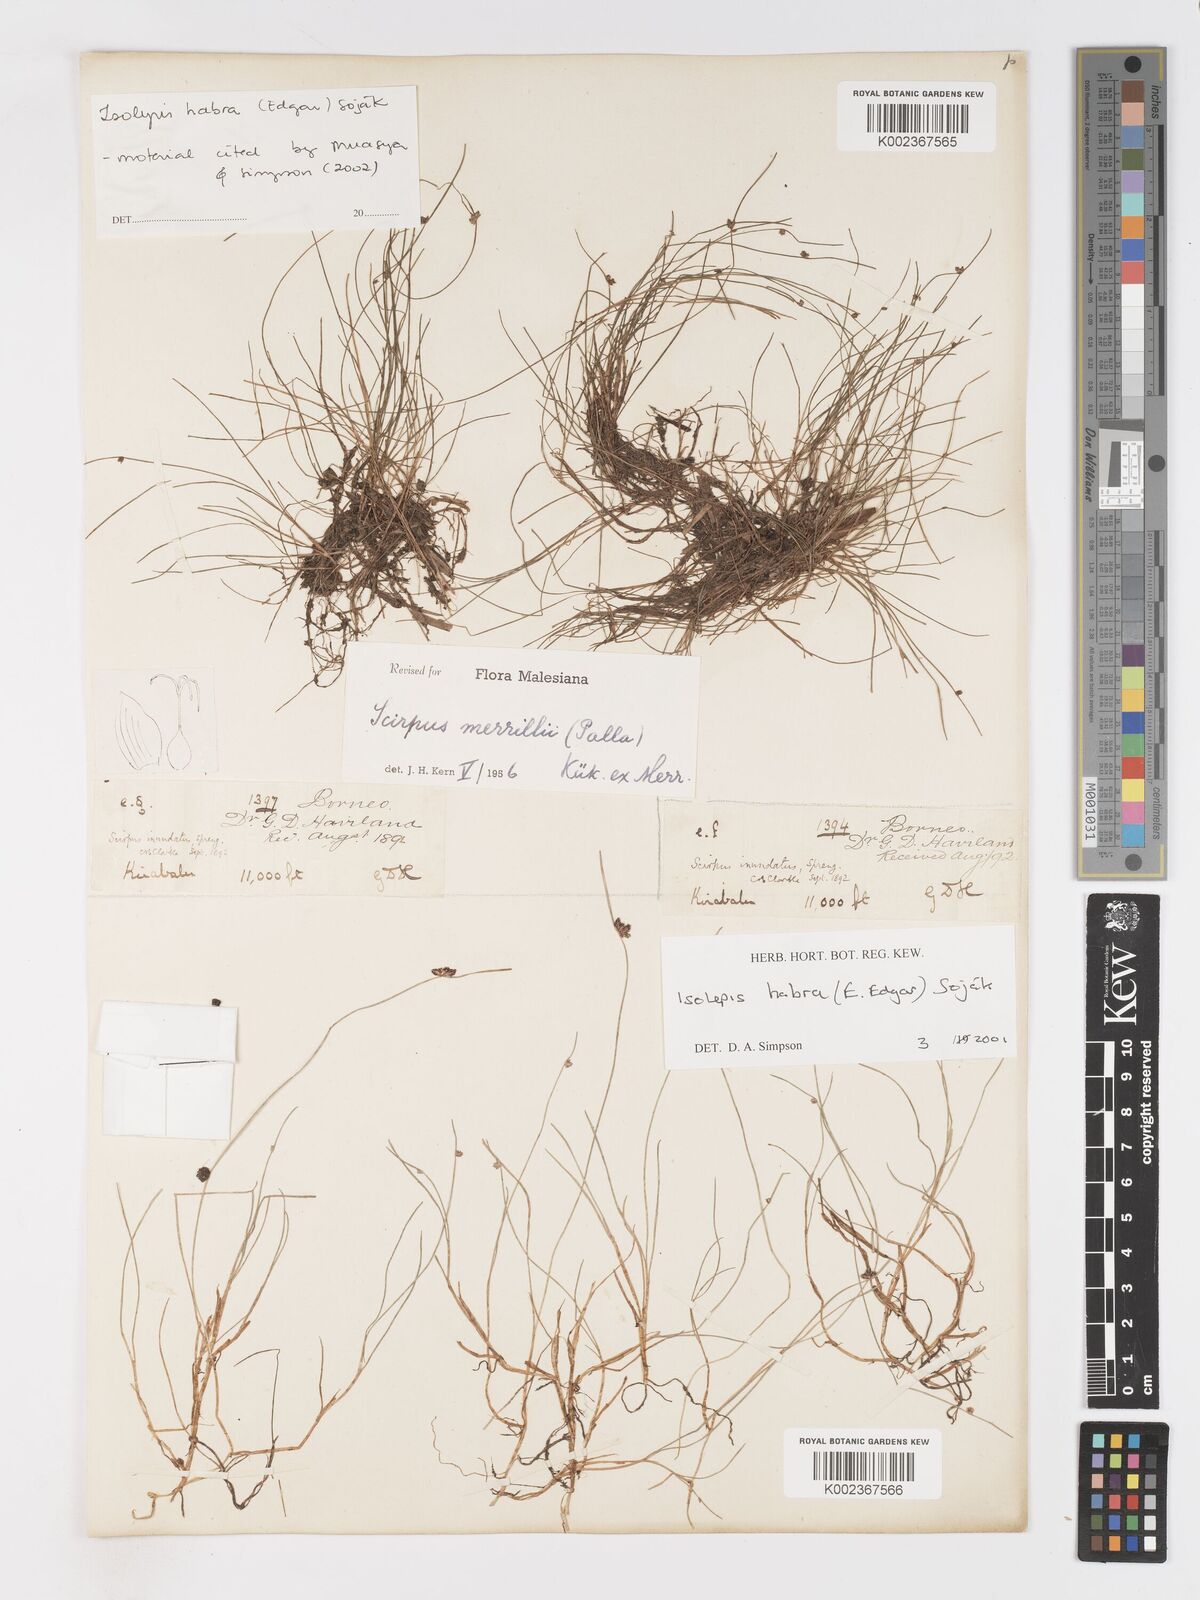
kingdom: Plantae
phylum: Tracheophyta
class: Liliopsida
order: Poales
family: Cyperaceae
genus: Isolepis
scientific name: Isolepis habra
